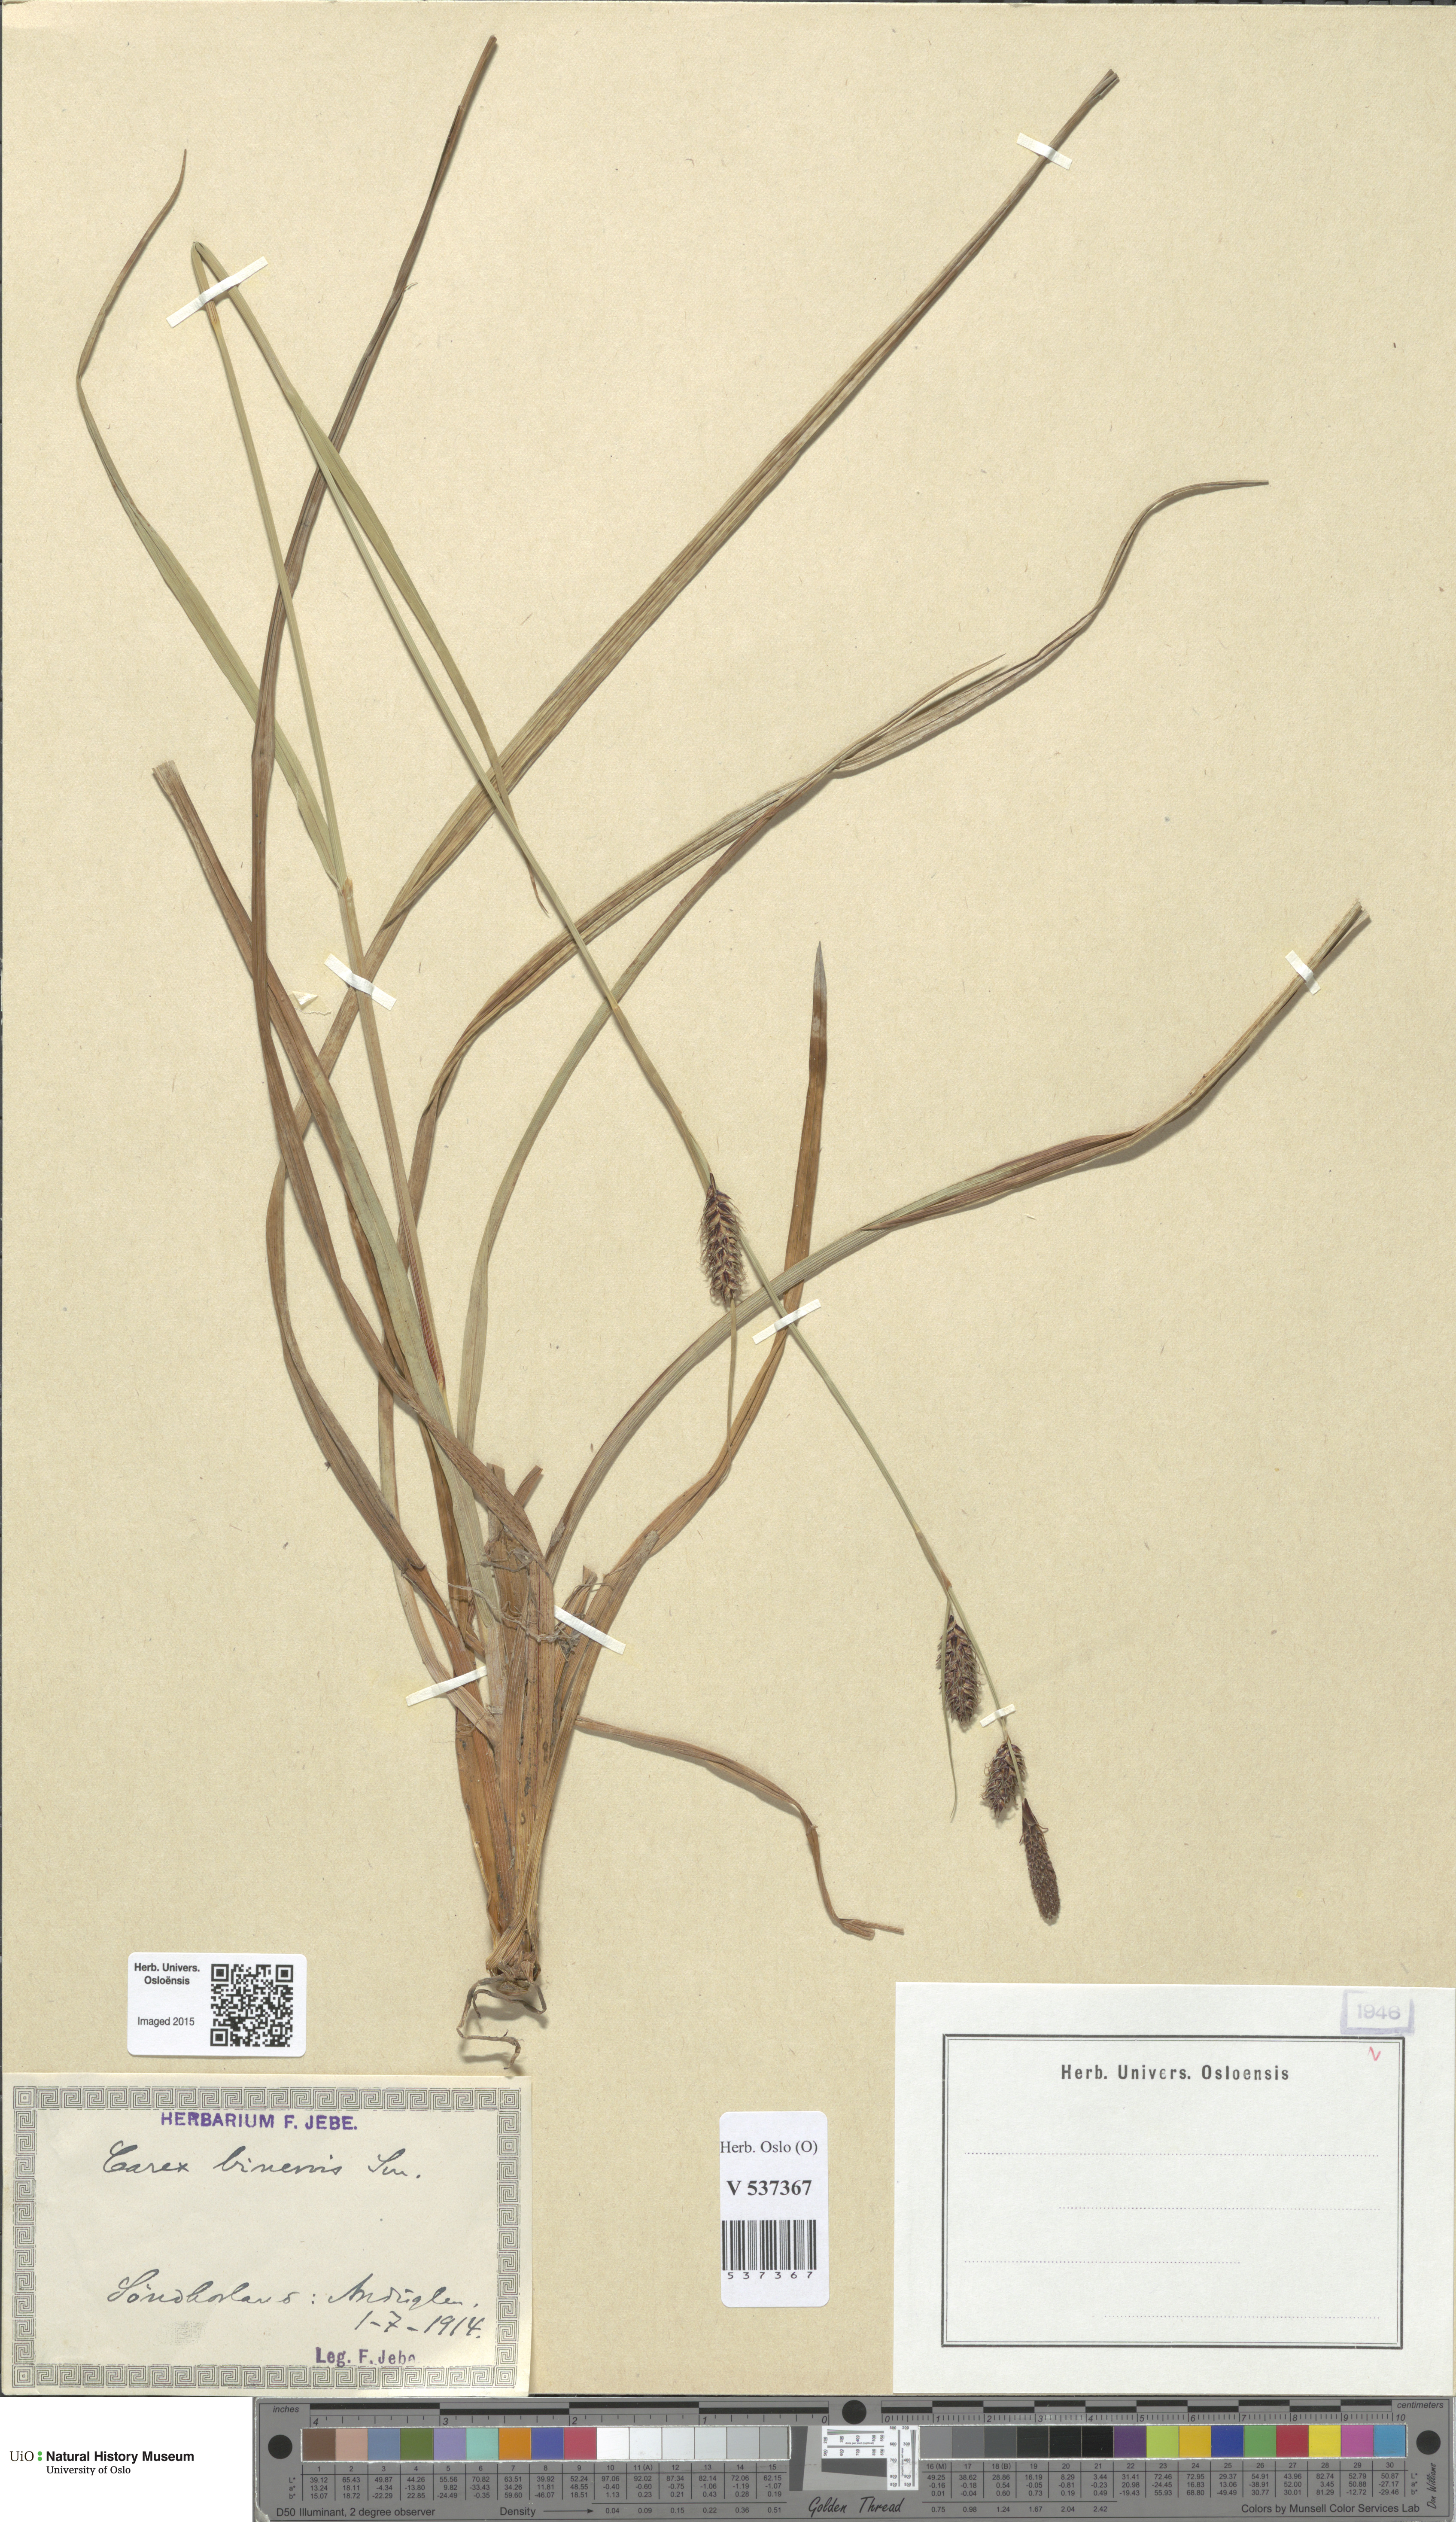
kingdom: Plantae
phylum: Tracheophyta
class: Liliopsida
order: Poales
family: Cyperaceae
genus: Carex
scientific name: Carex binervis
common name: Green-ribbed sedge
